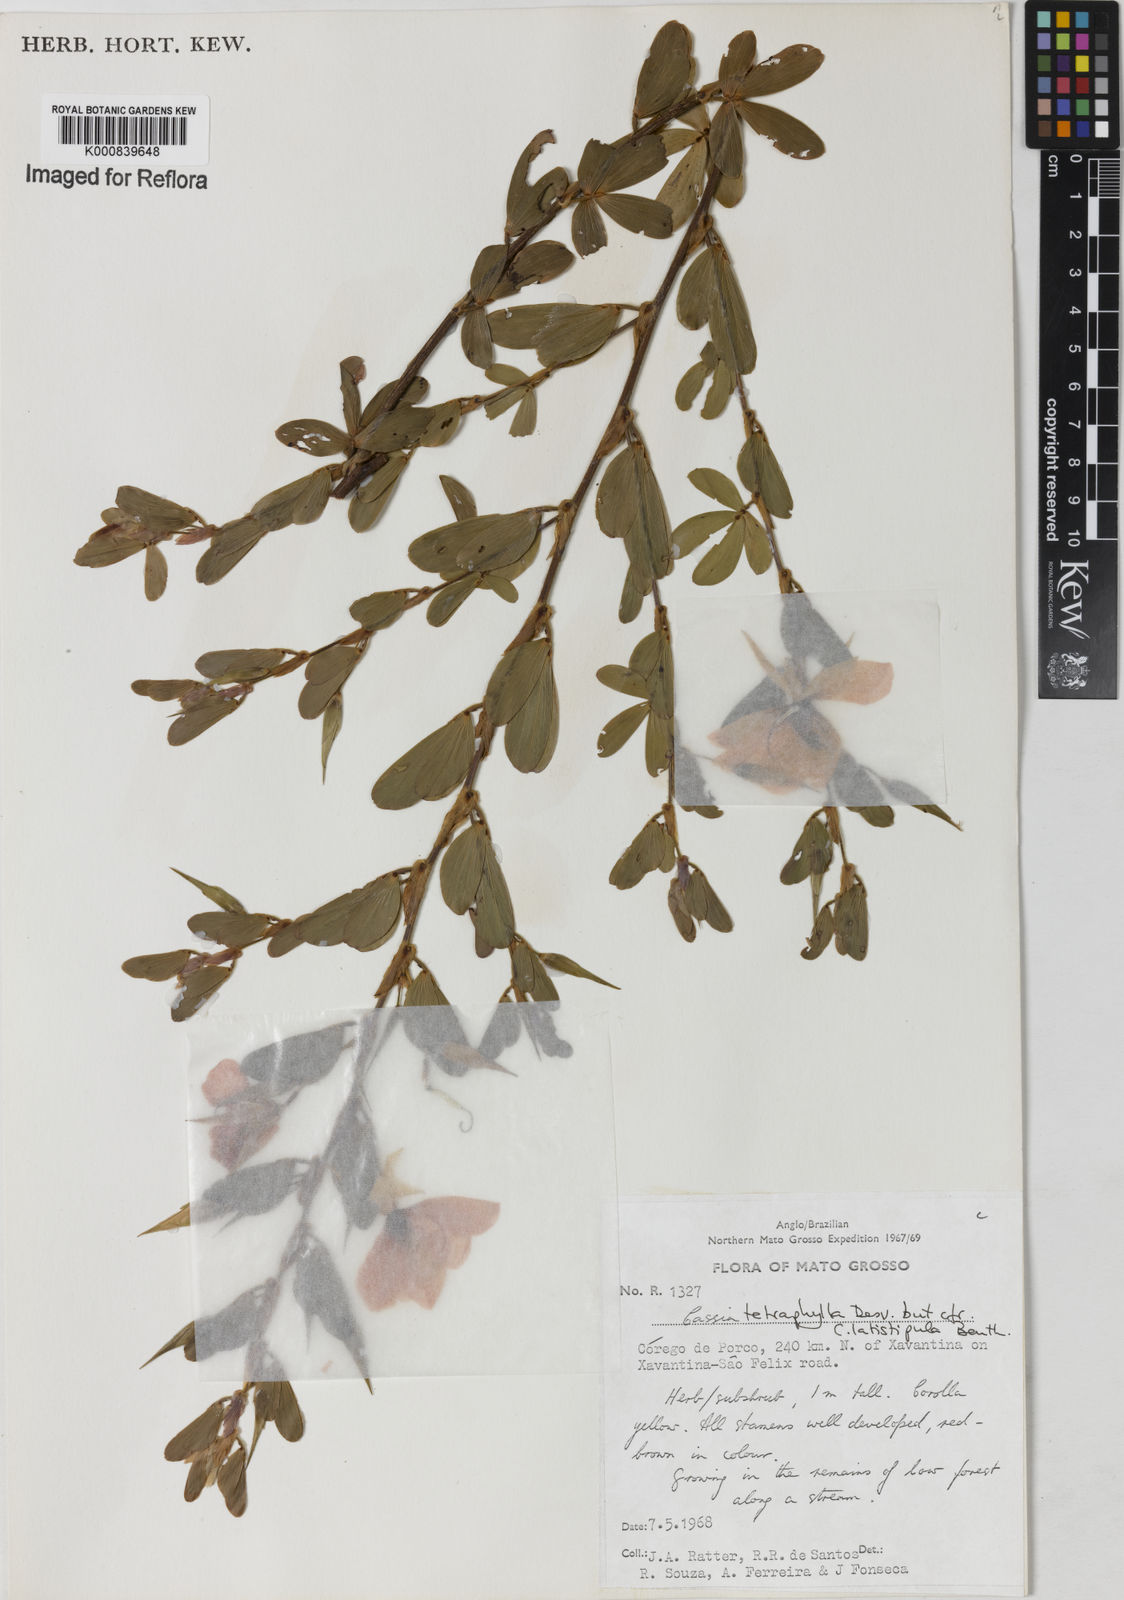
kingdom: Plantae
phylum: Tracheophyta
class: Magnoliopsida
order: Fabales
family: Fabaceae
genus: Chamaecrista
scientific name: Chamaecrista desvauxii
